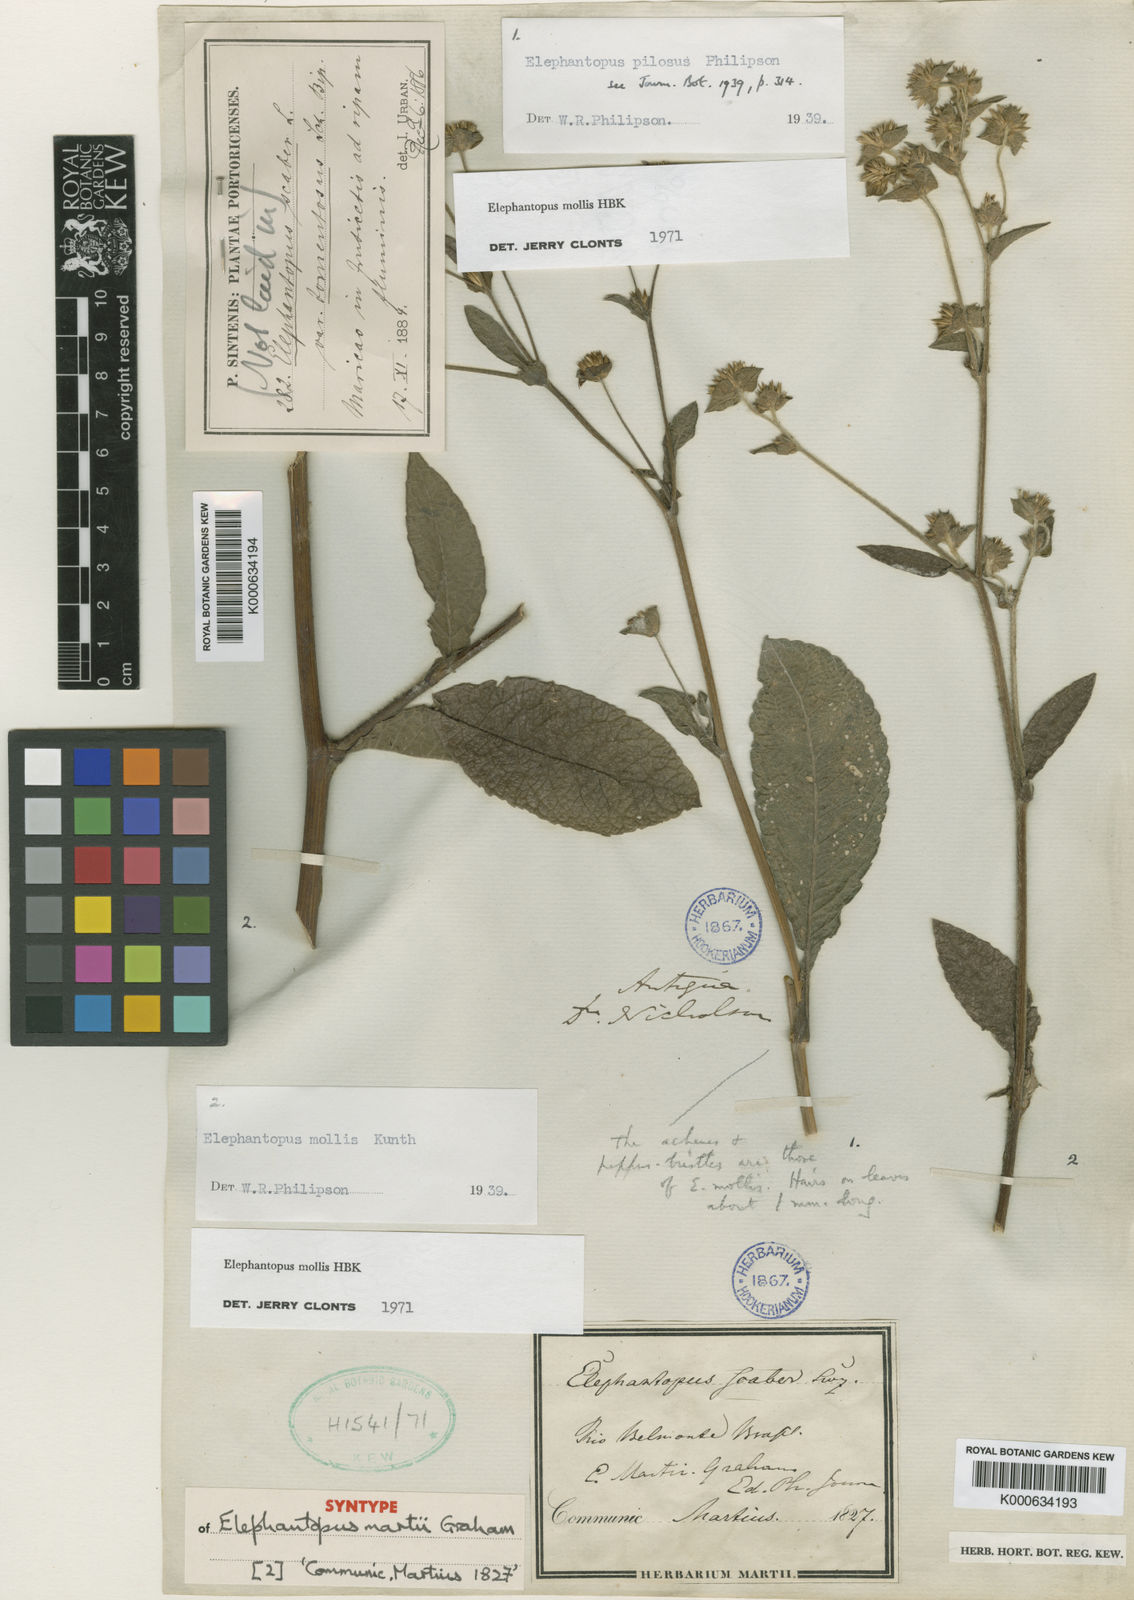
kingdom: Plantae
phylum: Tracheophyta
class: Magnoliopsida
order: Asterales
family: Asteraceae
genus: Elephantopus
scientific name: Elephantopus mollis
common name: Soft elephantsfoot
